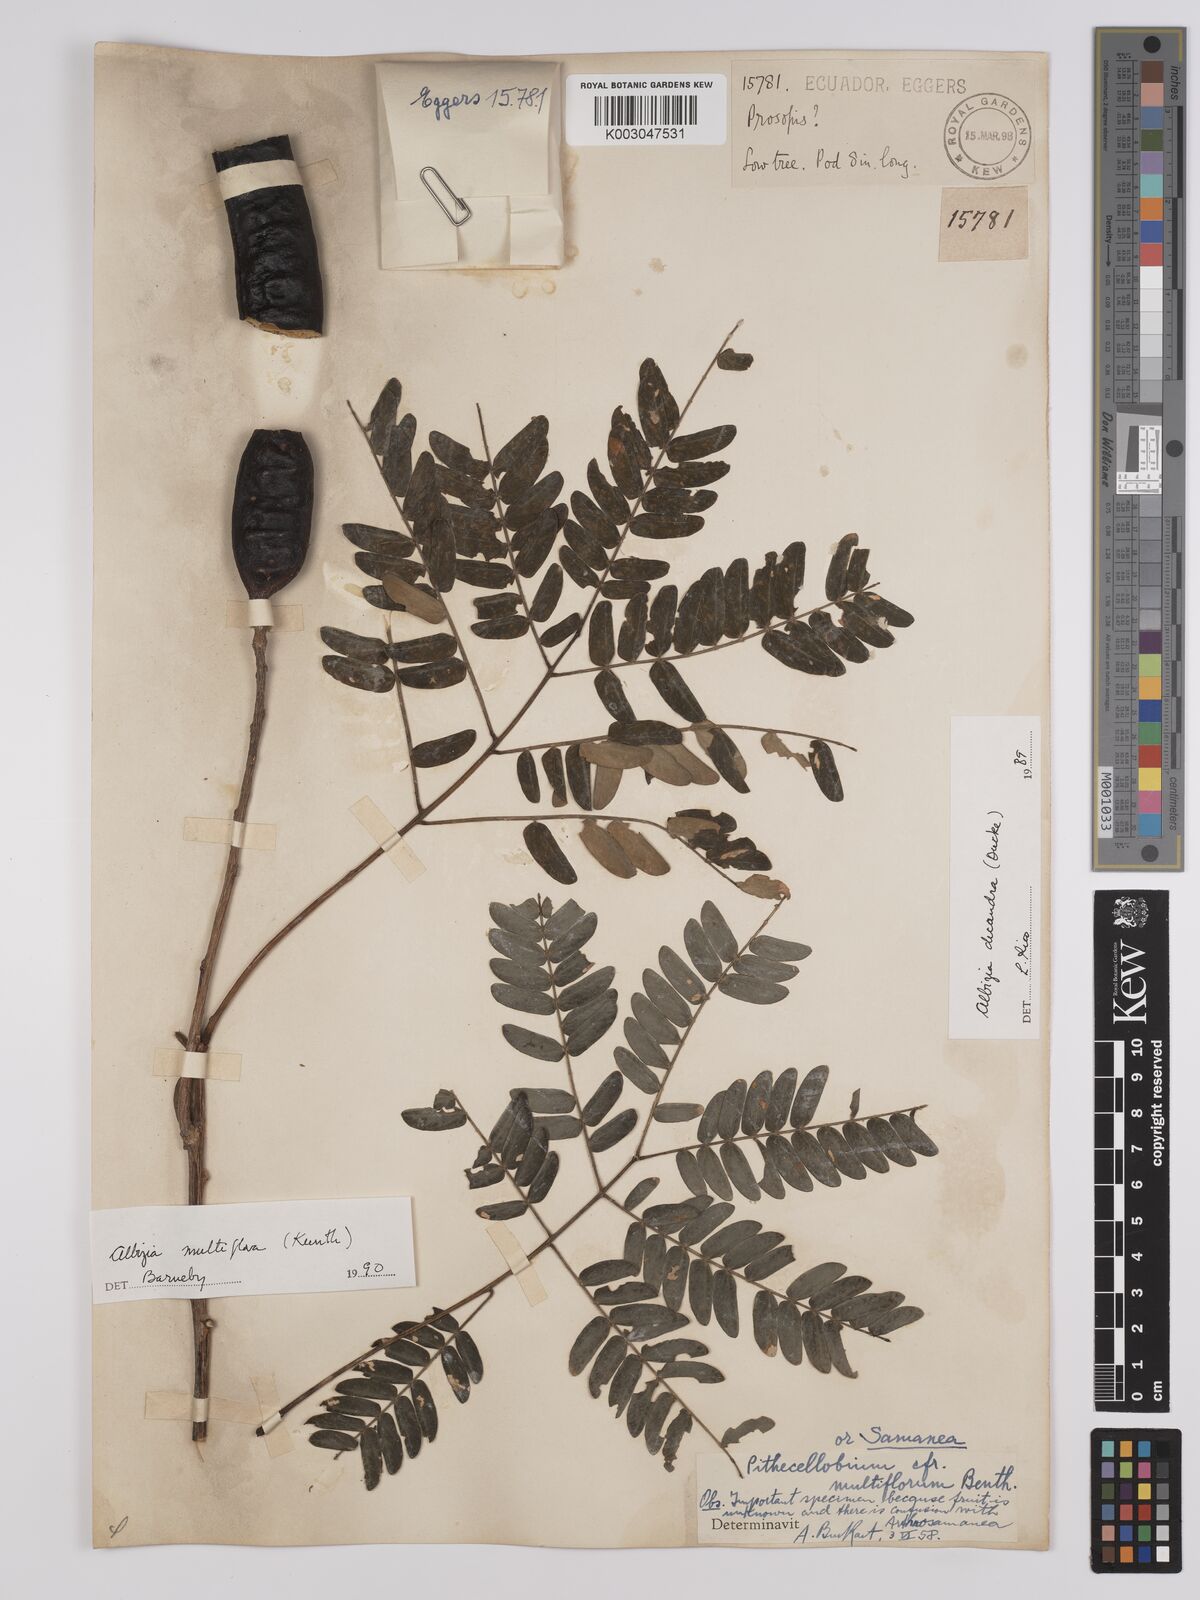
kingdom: Plantae
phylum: Tracheophyta
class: Magnoliopsida
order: Fabales
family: Fabaceae
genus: Albizia
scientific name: Albizia multiflora
